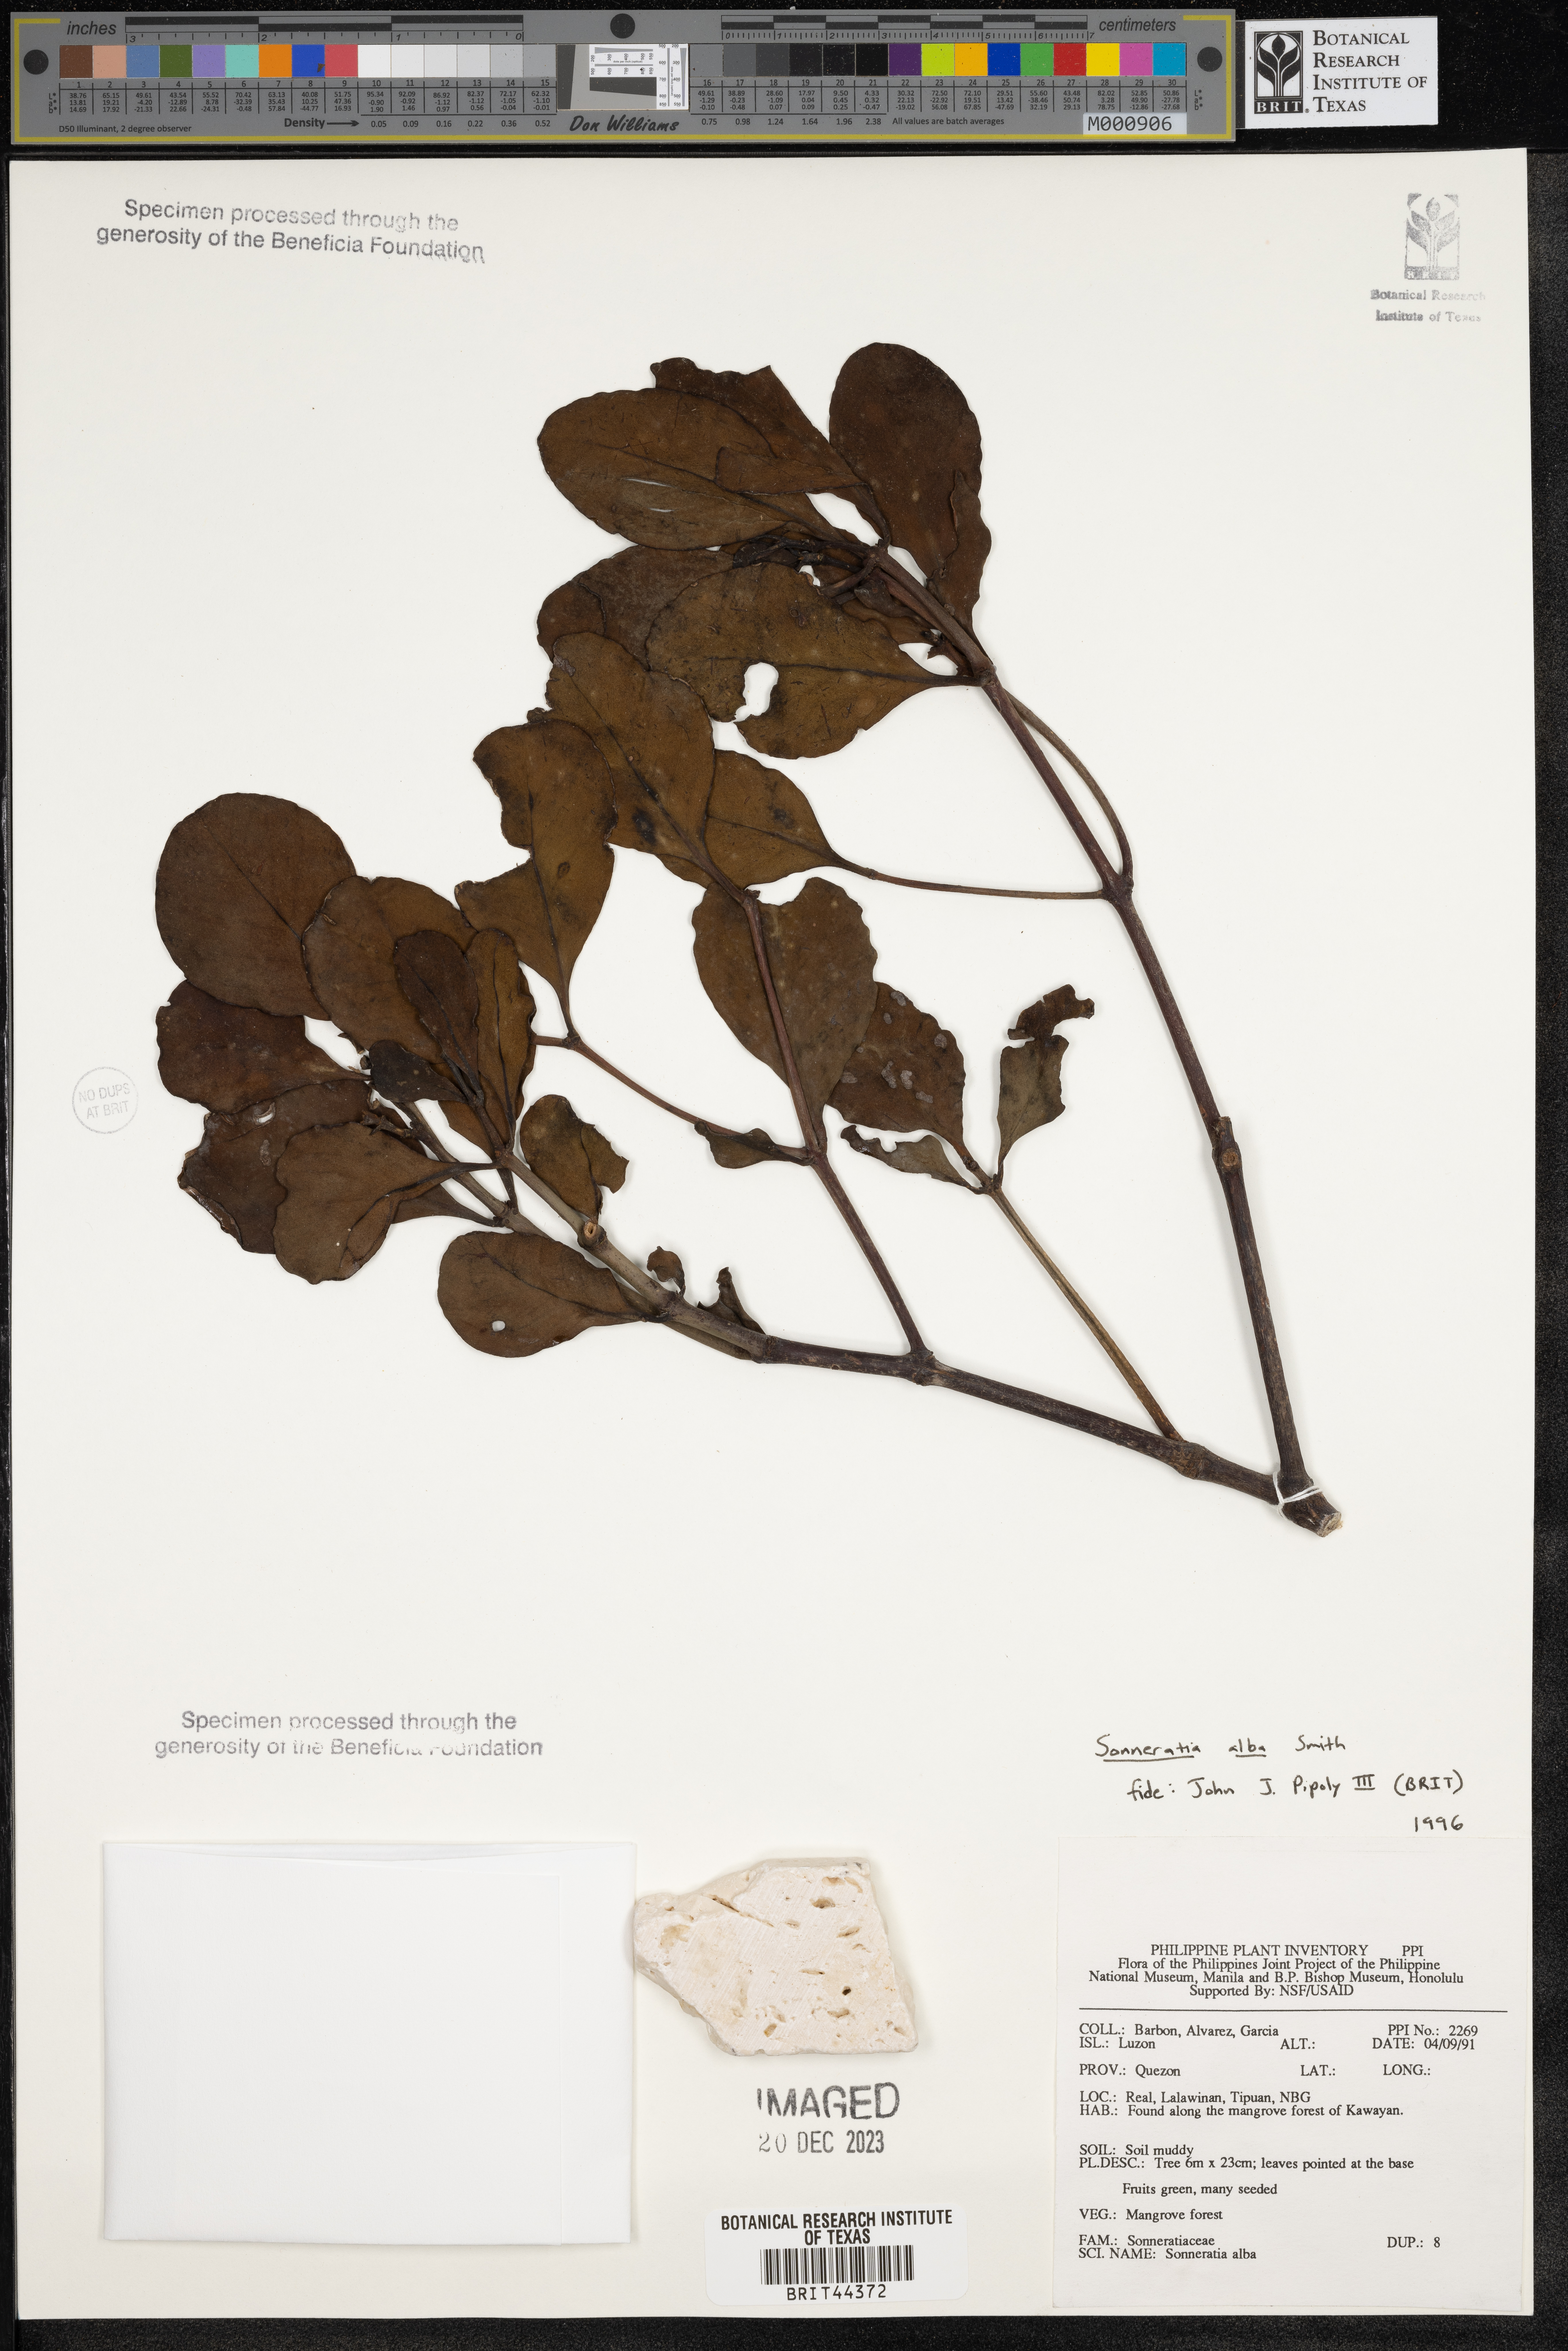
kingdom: Plantae
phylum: Tracheophyta
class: Magnoliopsida
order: Myrtales
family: Lythraceae
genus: Sonneratia
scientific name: Sonneratia alba
